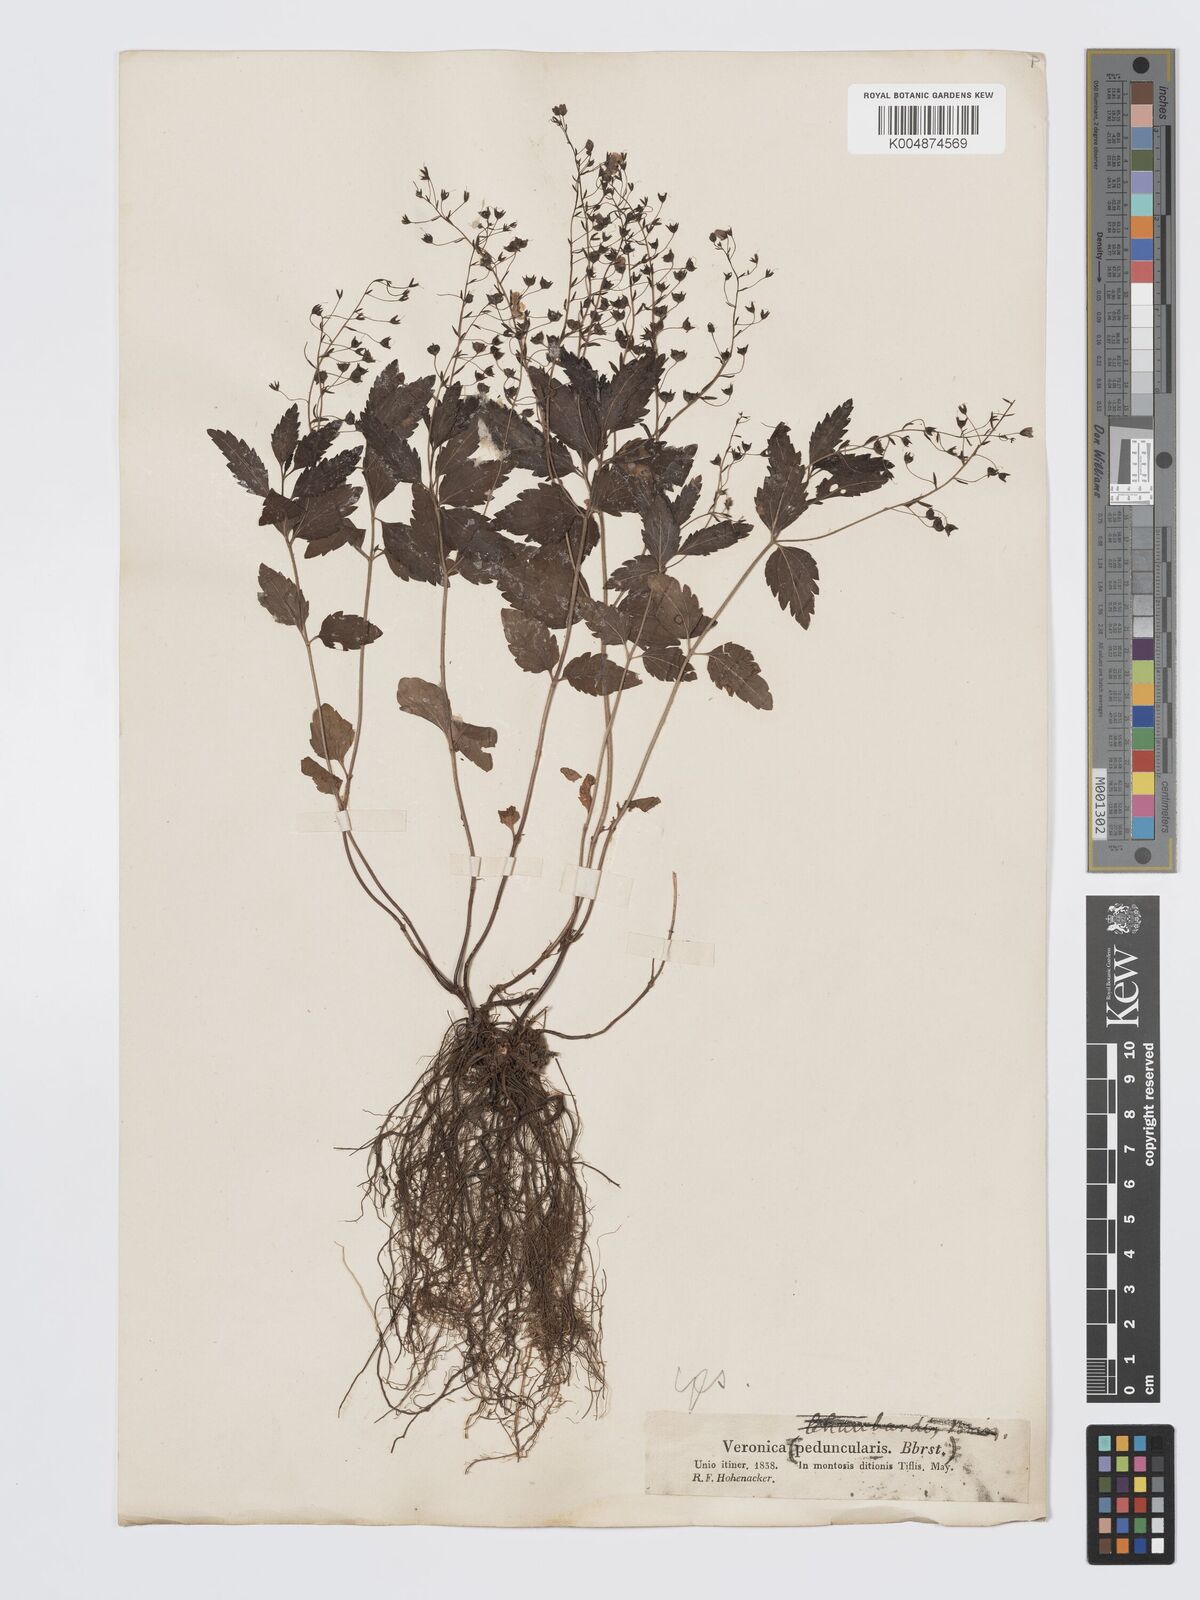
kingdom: Plantae
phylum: Tracheophyta
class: Magnoliopsida
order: Lamiales
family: Plantaginaceae
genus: Veronica
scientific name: Veronica
